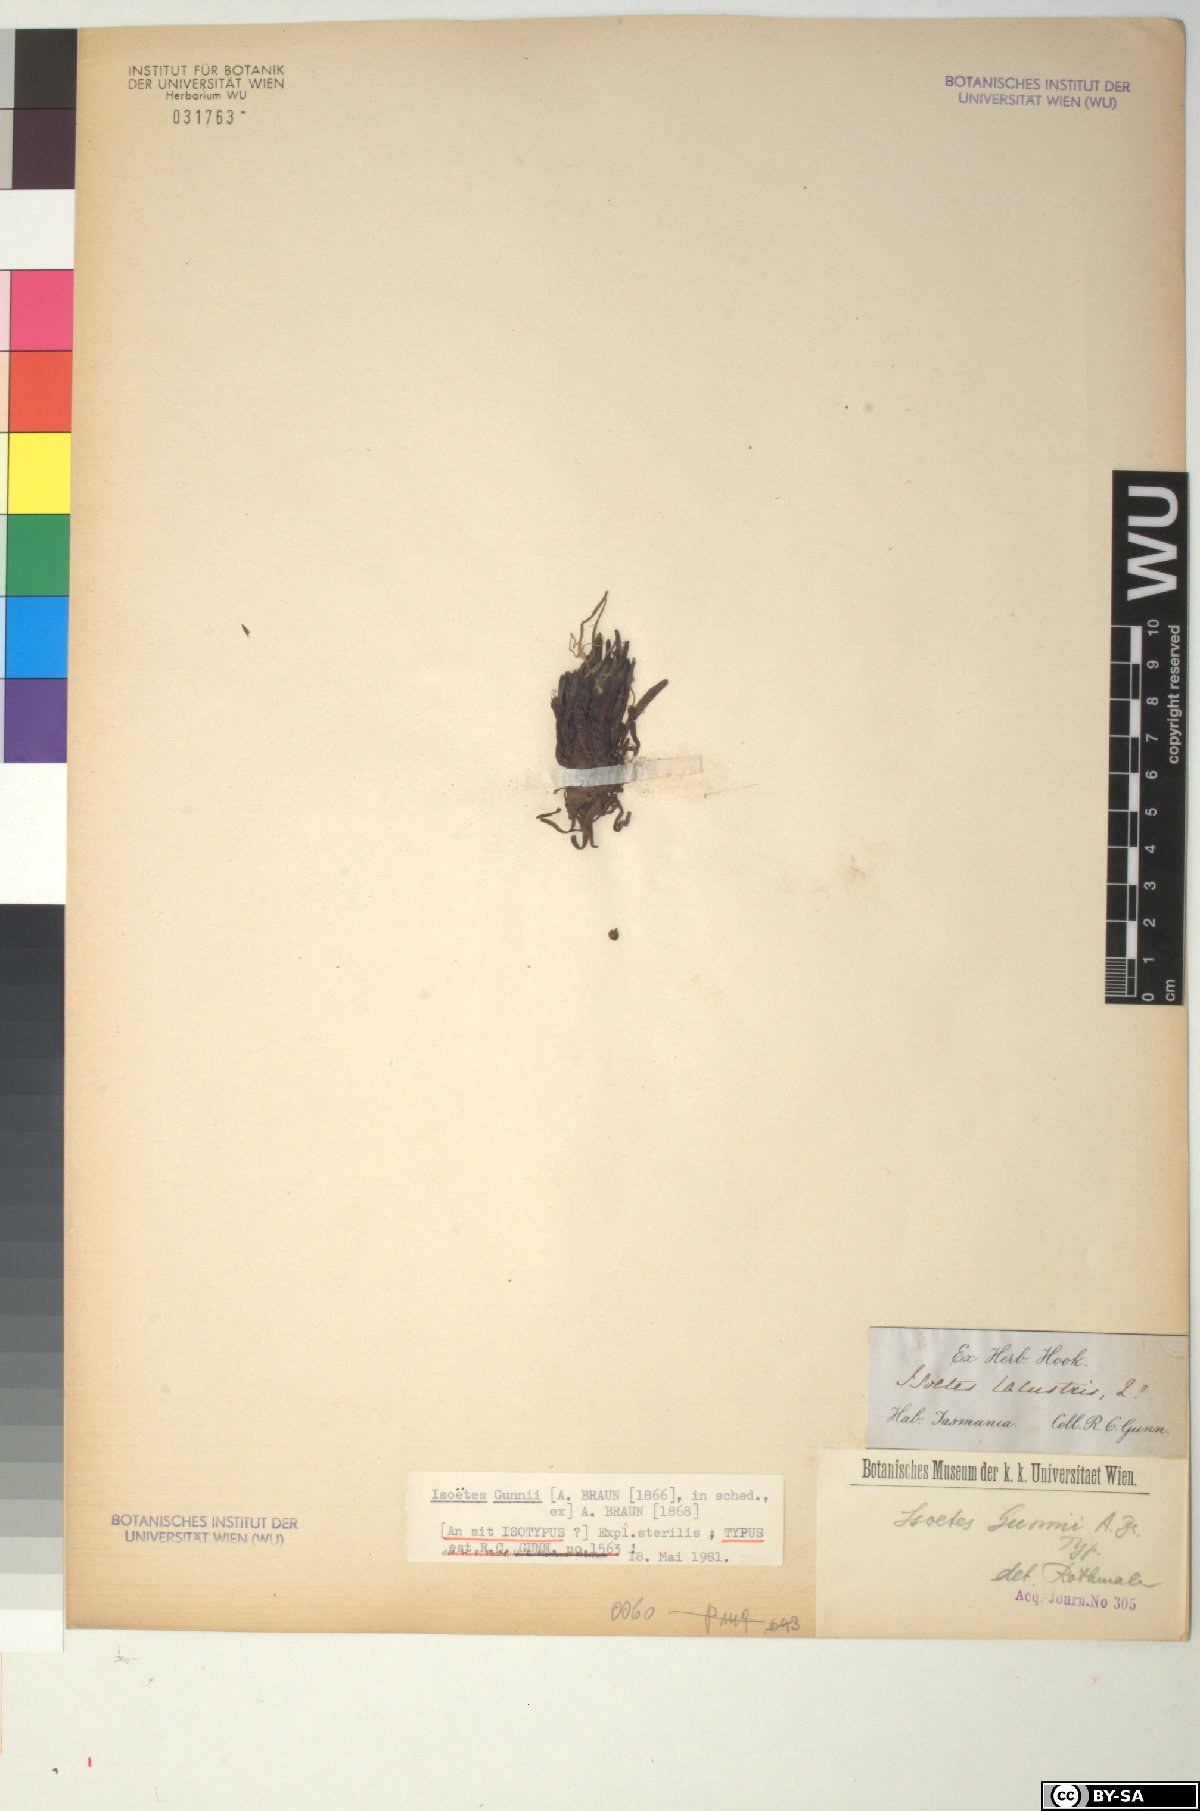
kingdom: Plantae
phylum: Tracheophyta
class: Lycopodiopsida
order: Isoetales
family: Isoetaceae
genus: Isoetes
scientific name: Isoetes gunnii
